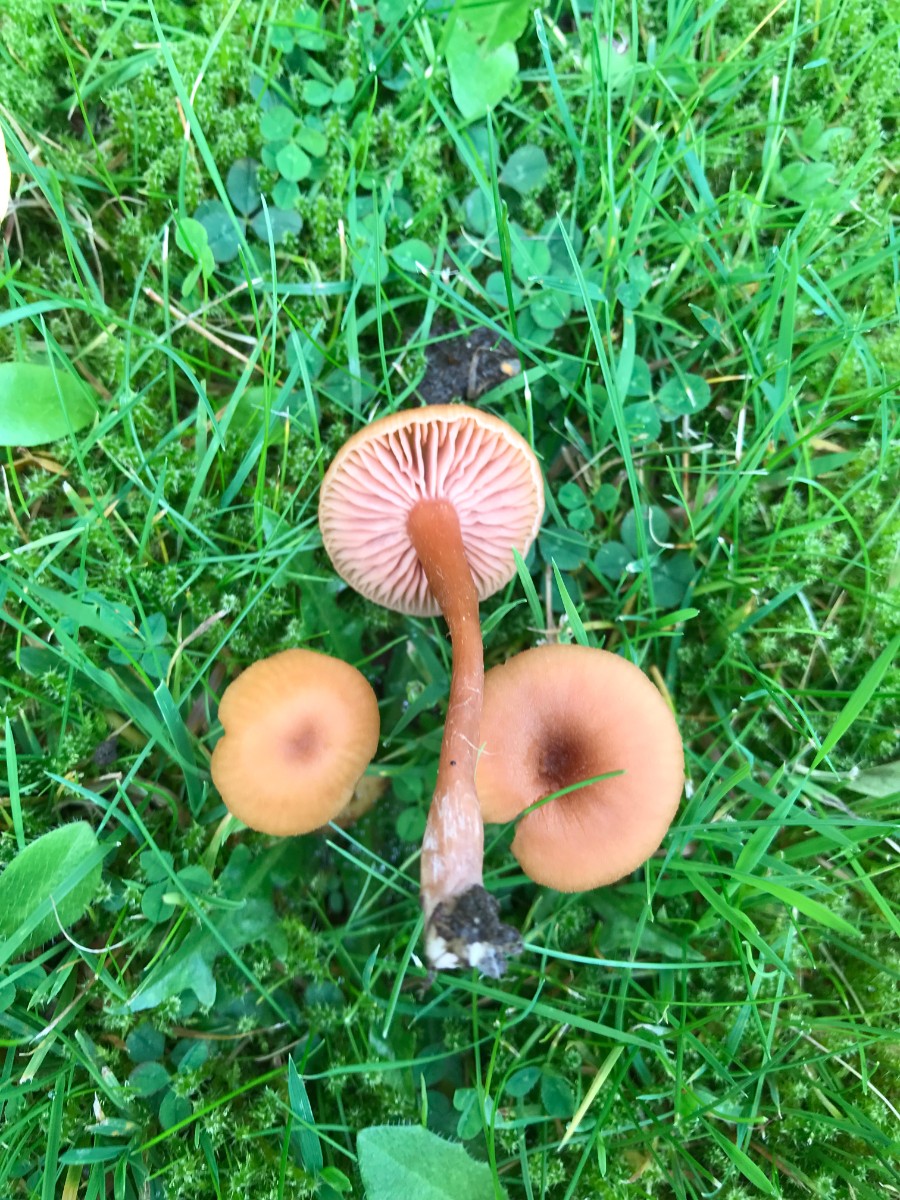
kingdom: Fungi
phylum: Basidiomycota
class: Agaricomycetes
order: Agaricales
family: Hydnangiaceae
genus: Laccaria
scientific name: Laccaria laccata
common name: rød ametysthat
